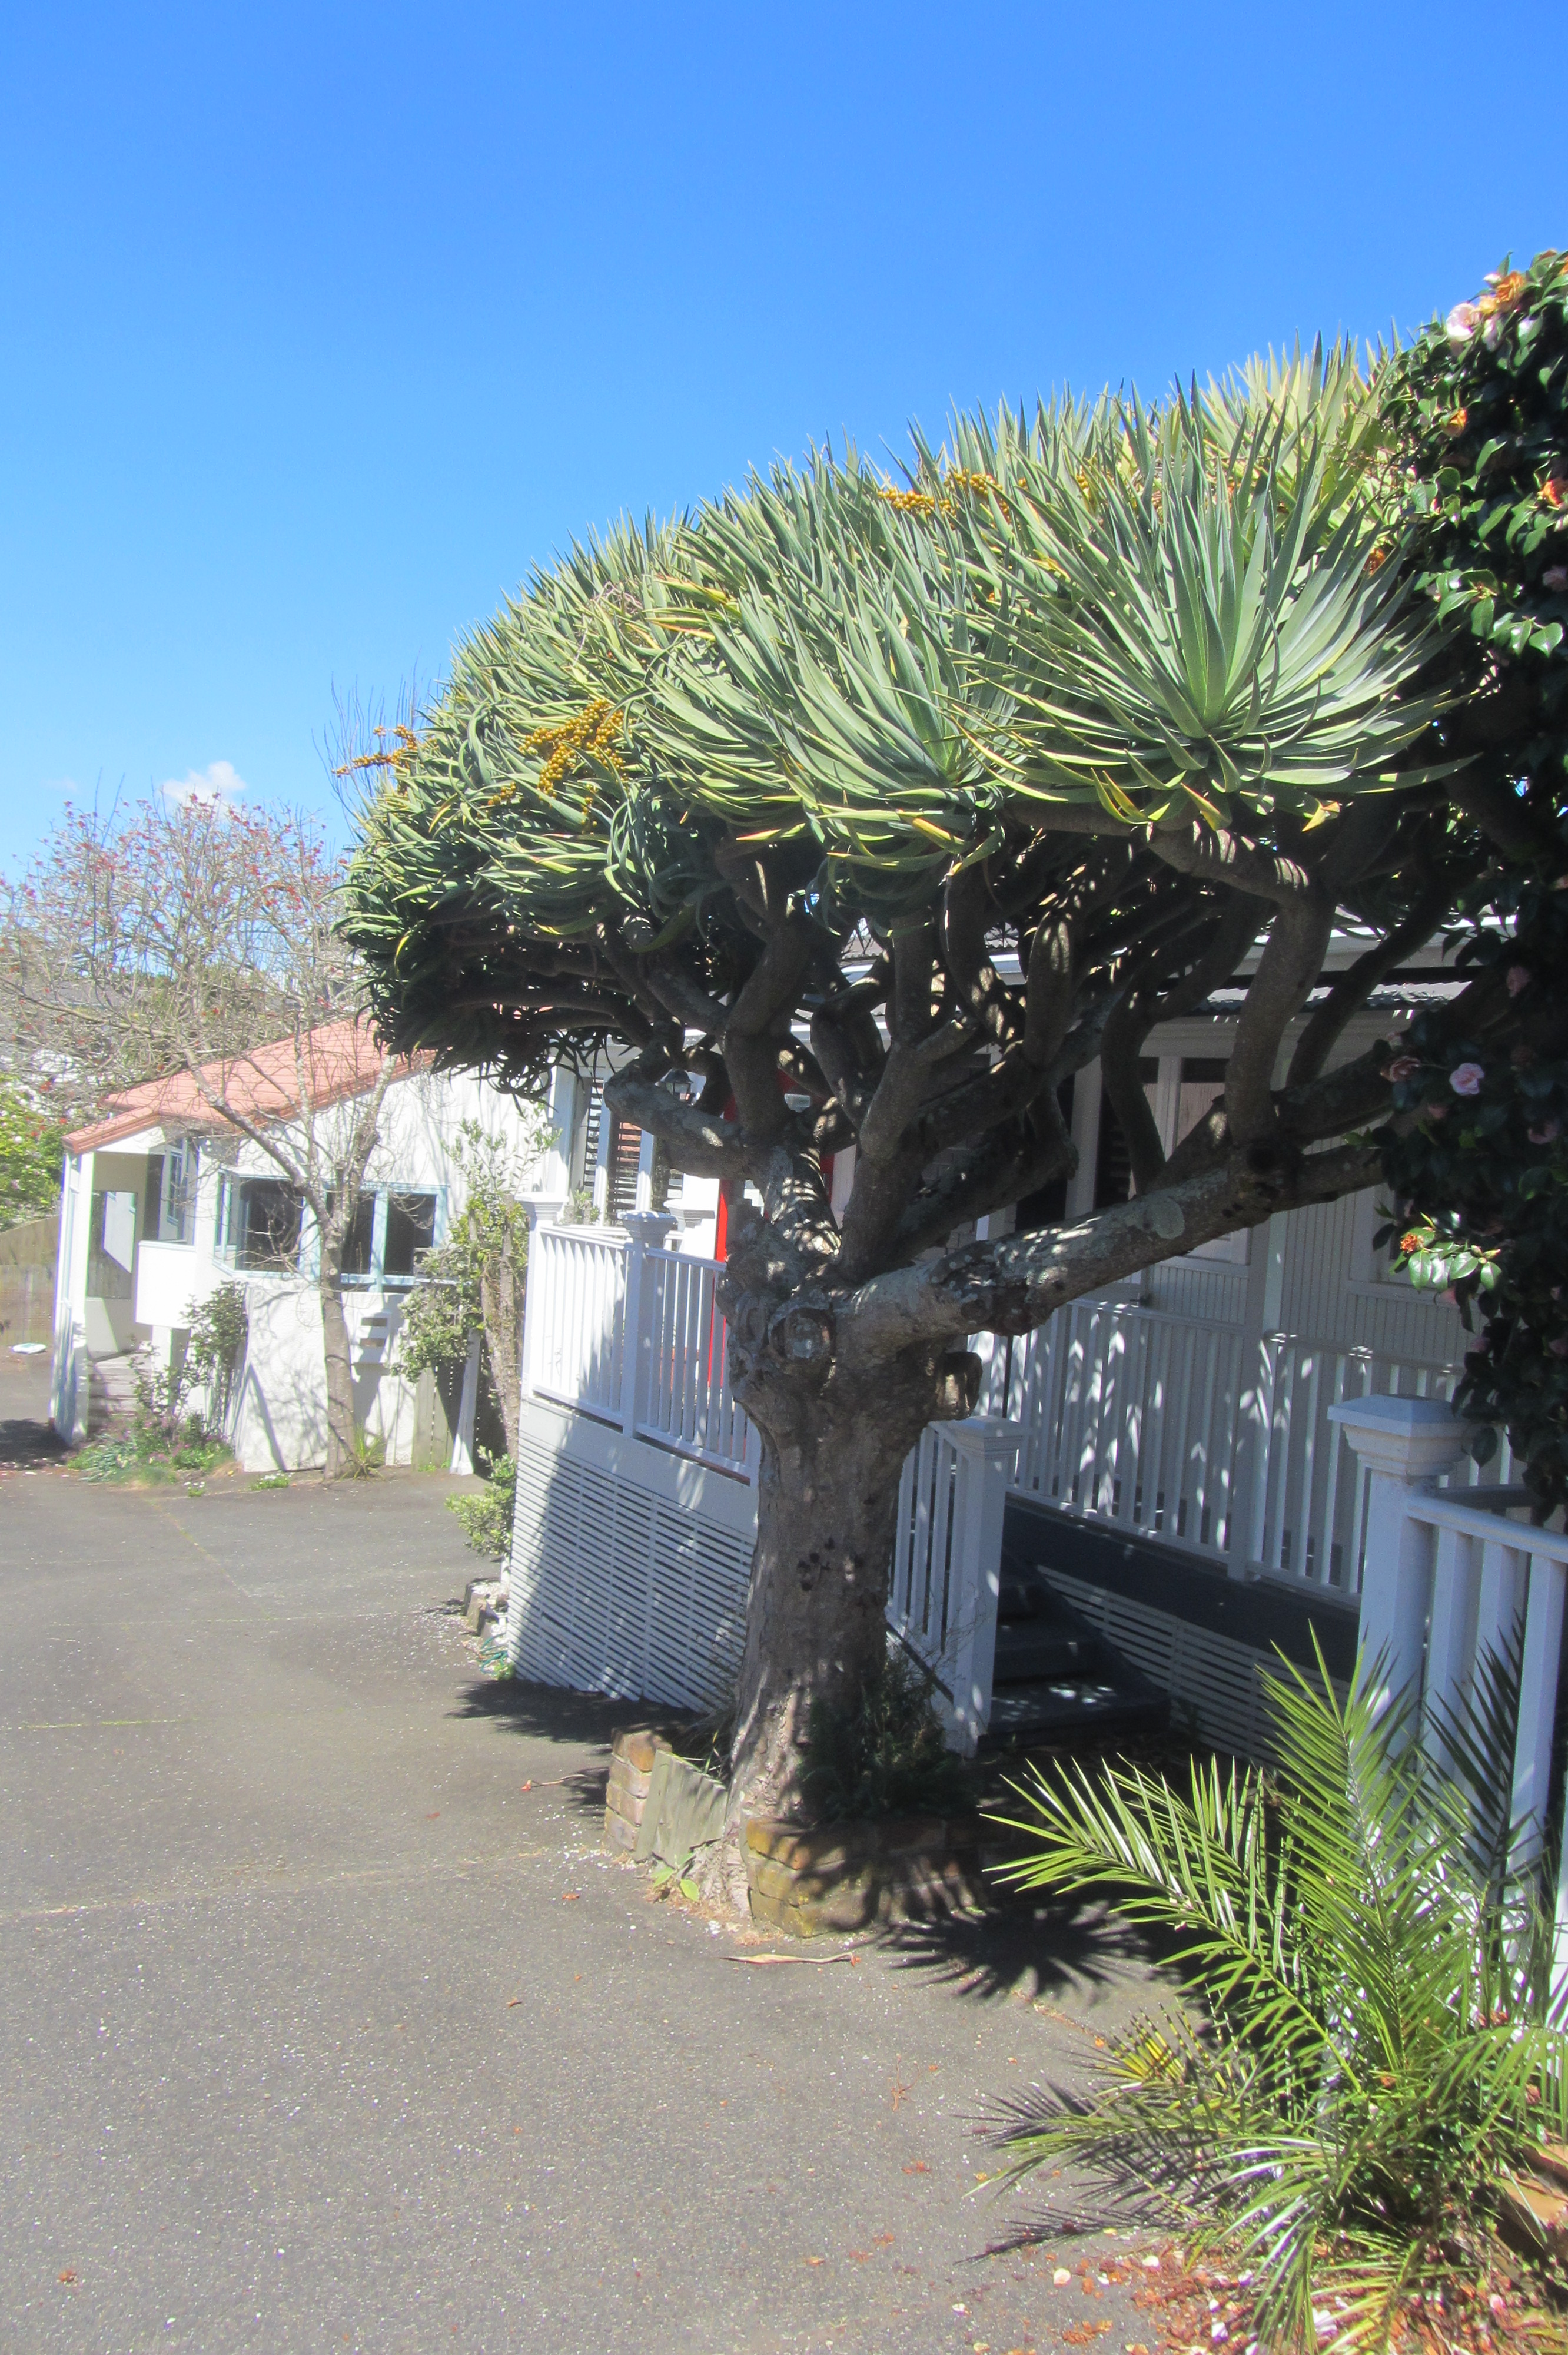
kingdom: Plantae
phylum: Tracheophyta
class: Liliopsida
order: Asparagales
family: Asparagaceae
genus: Dracaena
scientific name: Dracaena draco
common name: Canary island dragon tree
